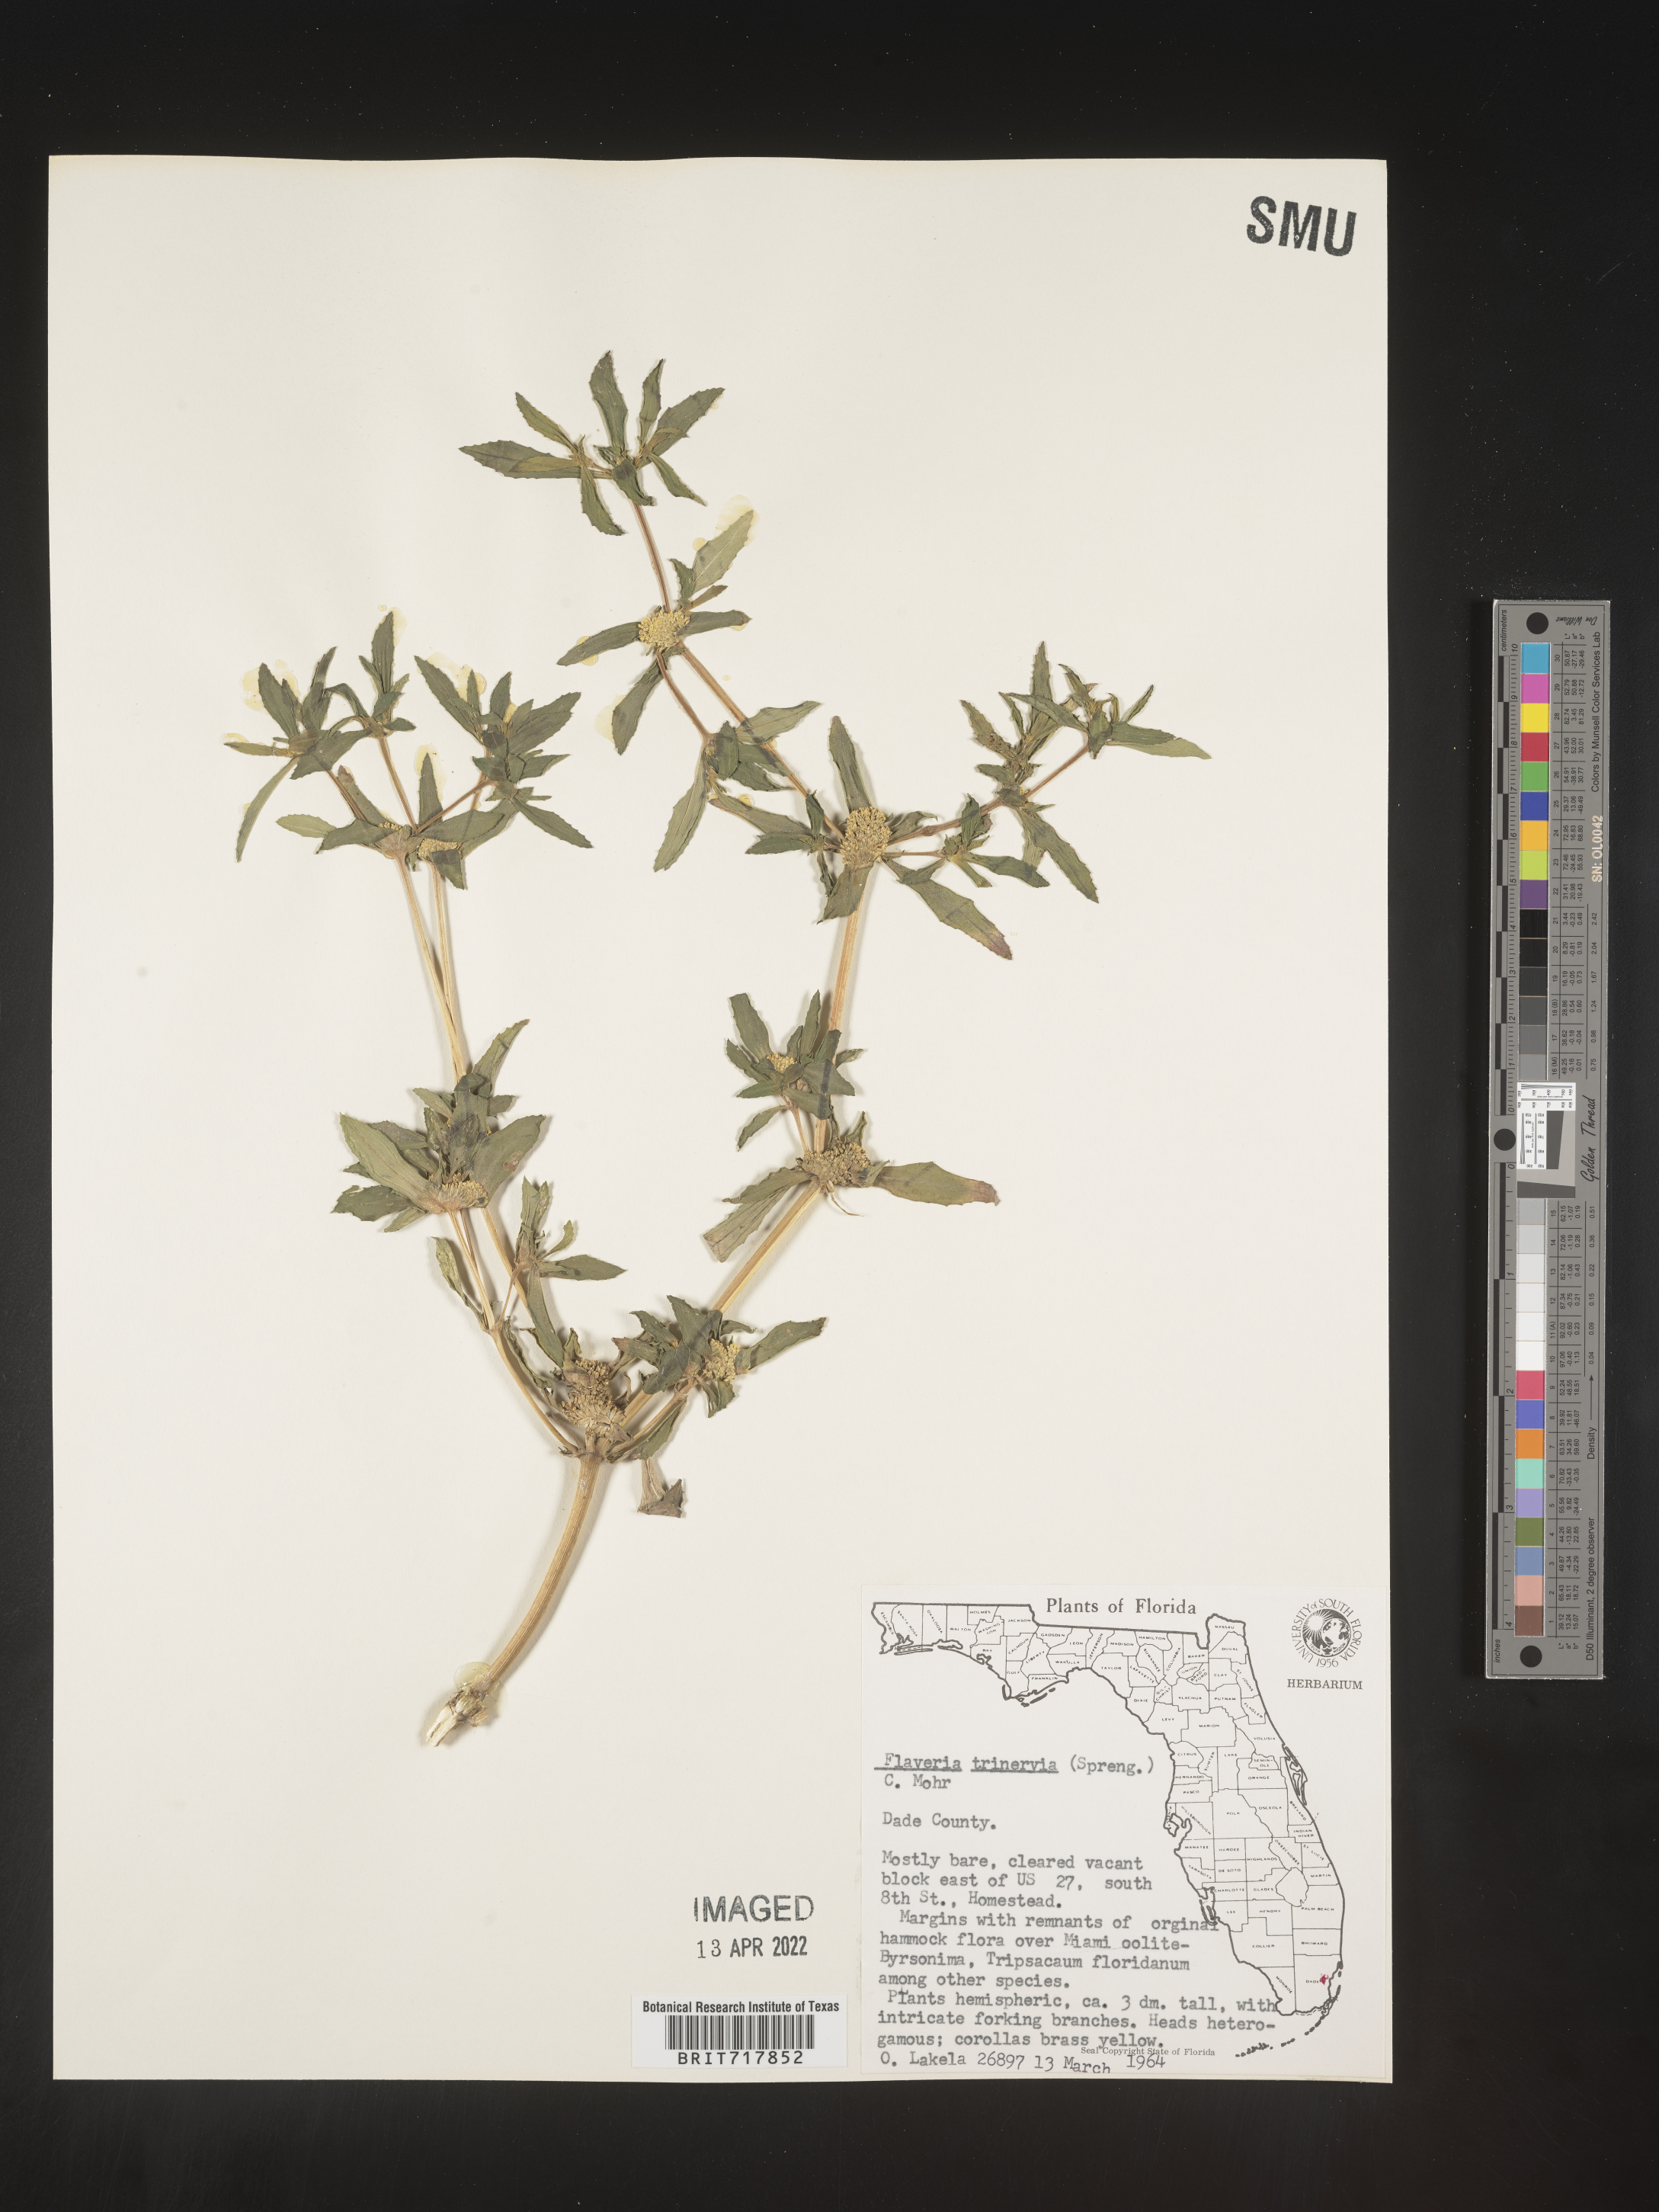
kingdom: Plantae
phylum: Tracheophyta
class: Magnoliopsida
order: Asterales
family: Asteraceae
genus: Flaveria
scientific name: Flaveria trinervia
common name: Clustered yellowtops
